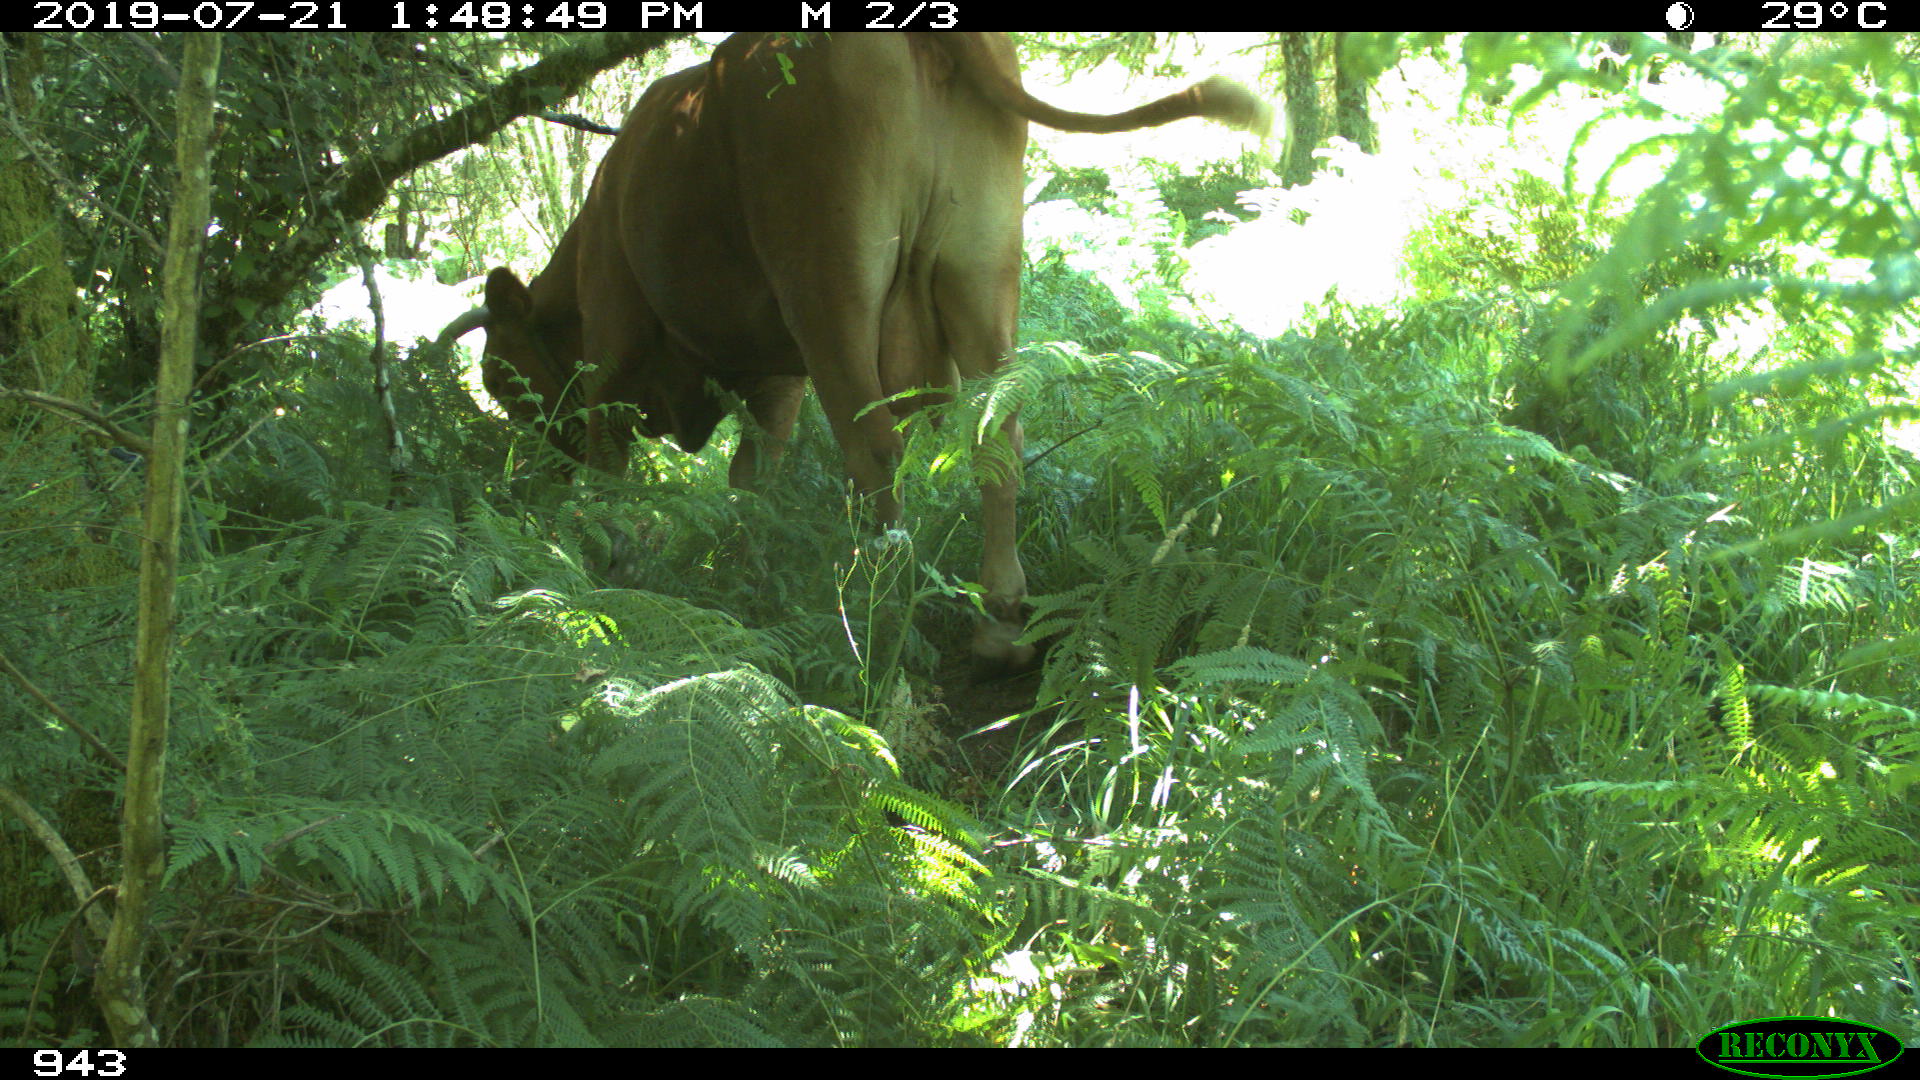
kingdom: Animalia
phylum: Chordata
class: Mammalia
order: Artiodactyla
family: Bovidae
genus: Bos
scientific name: Bos taurus
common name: Domesticated cattle
